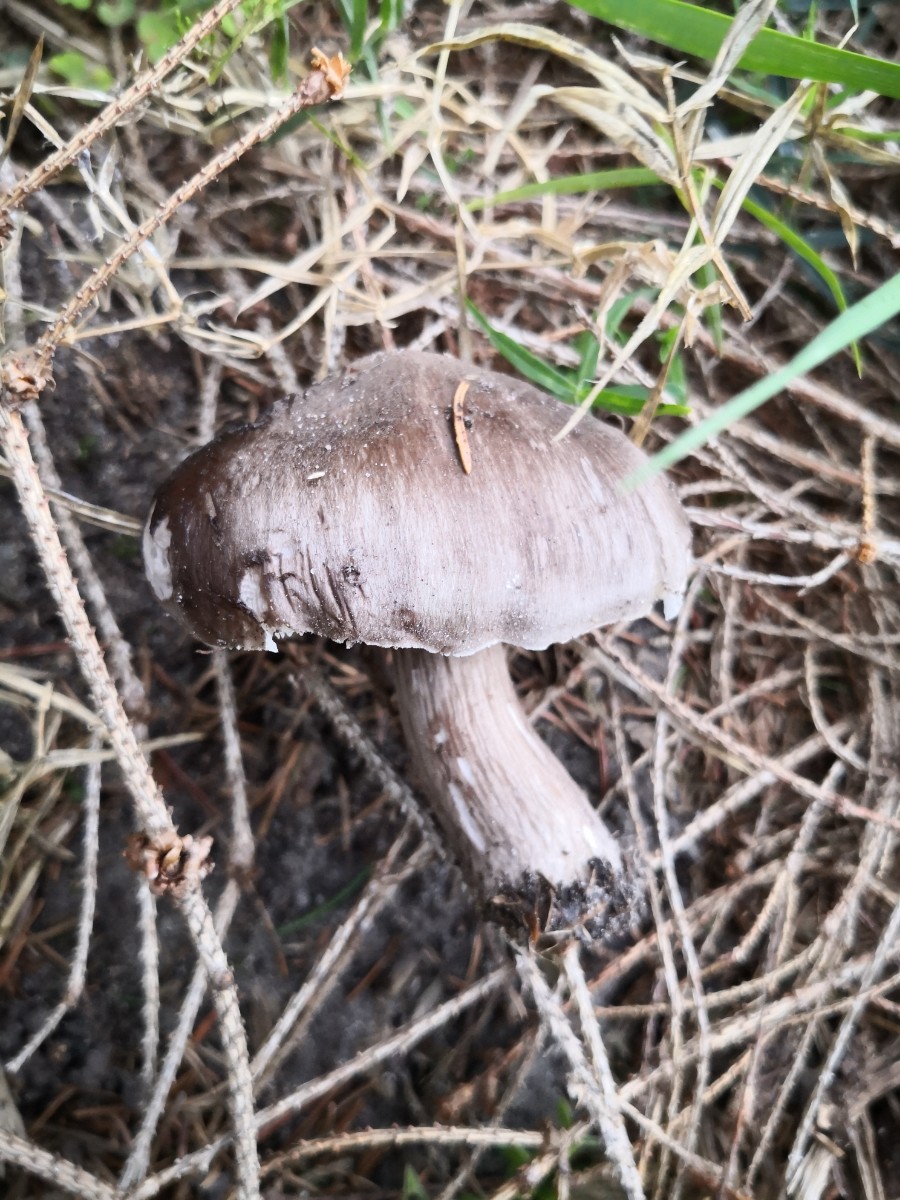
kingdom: Fungi
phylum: Basidiomycota
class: Agaricomycetes
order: Agaricales
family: Pluteaceae
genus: Pluteus
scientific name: Pluteus
